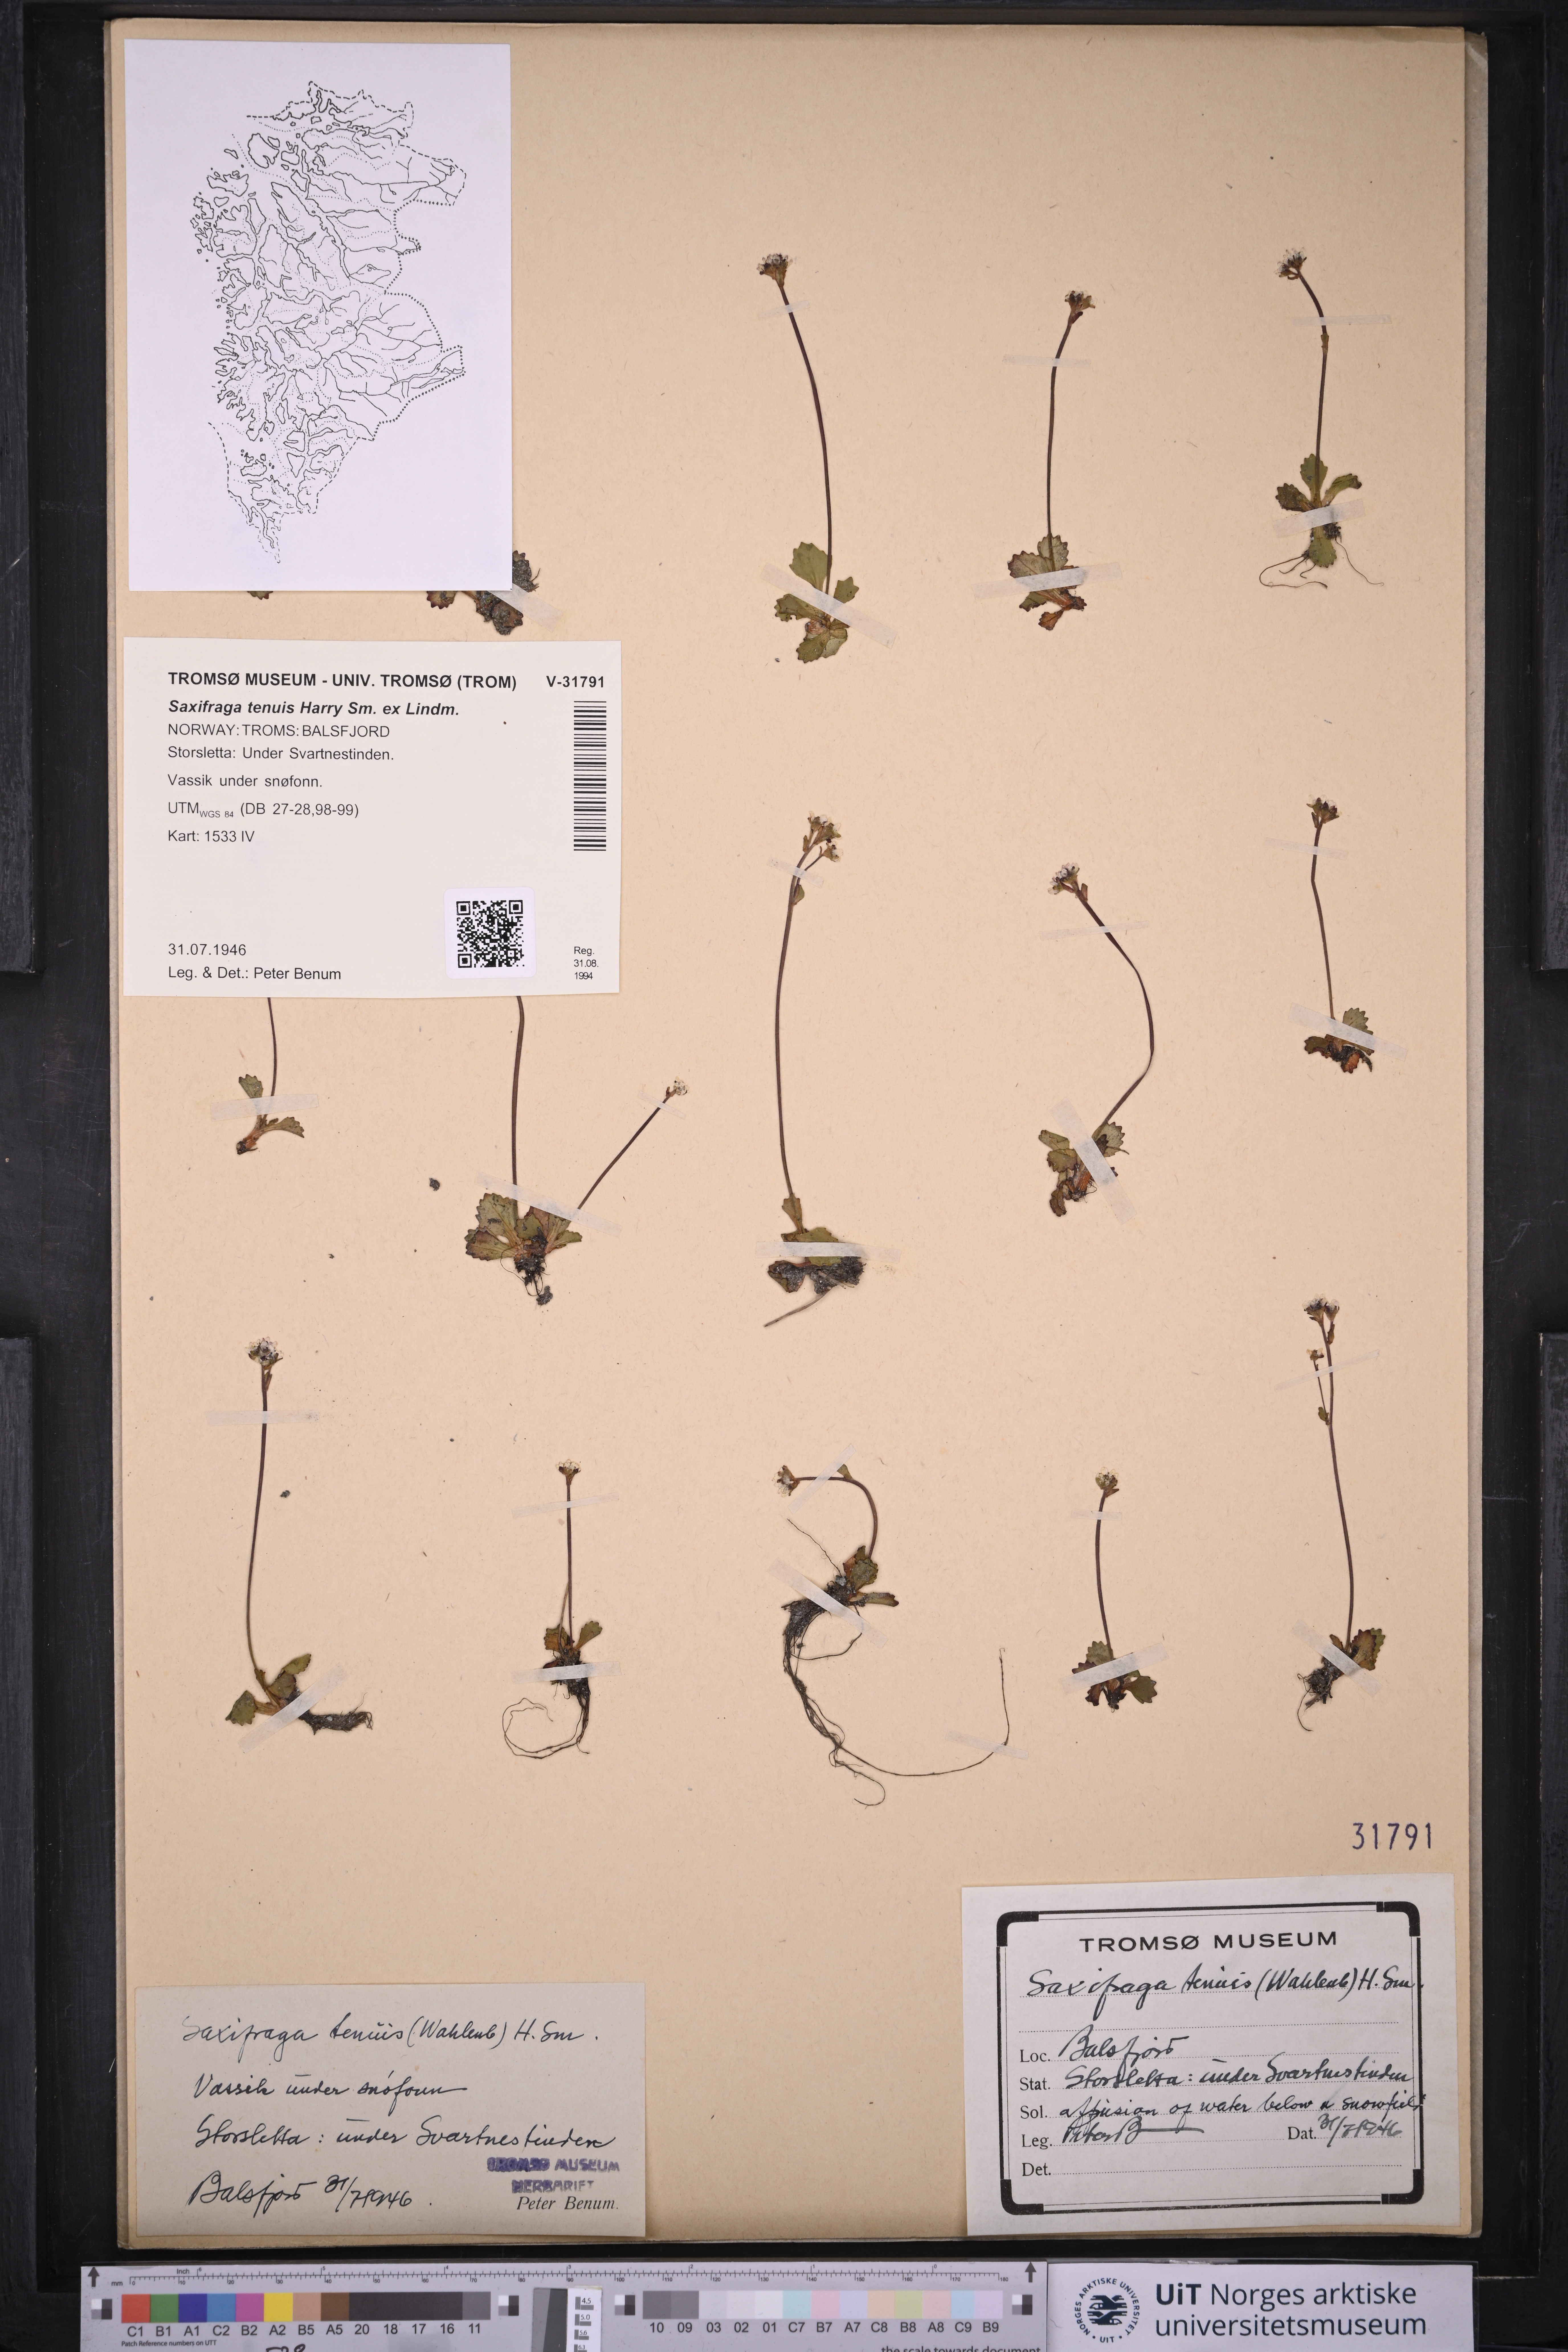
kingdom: Plantae
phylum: Tracheophyta
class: Magnoliopsida
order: Saxifragales
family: Saxifragaceae
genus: Micranthes
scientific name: Micranthes tenuis
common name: Ottertail pass saxifrage
